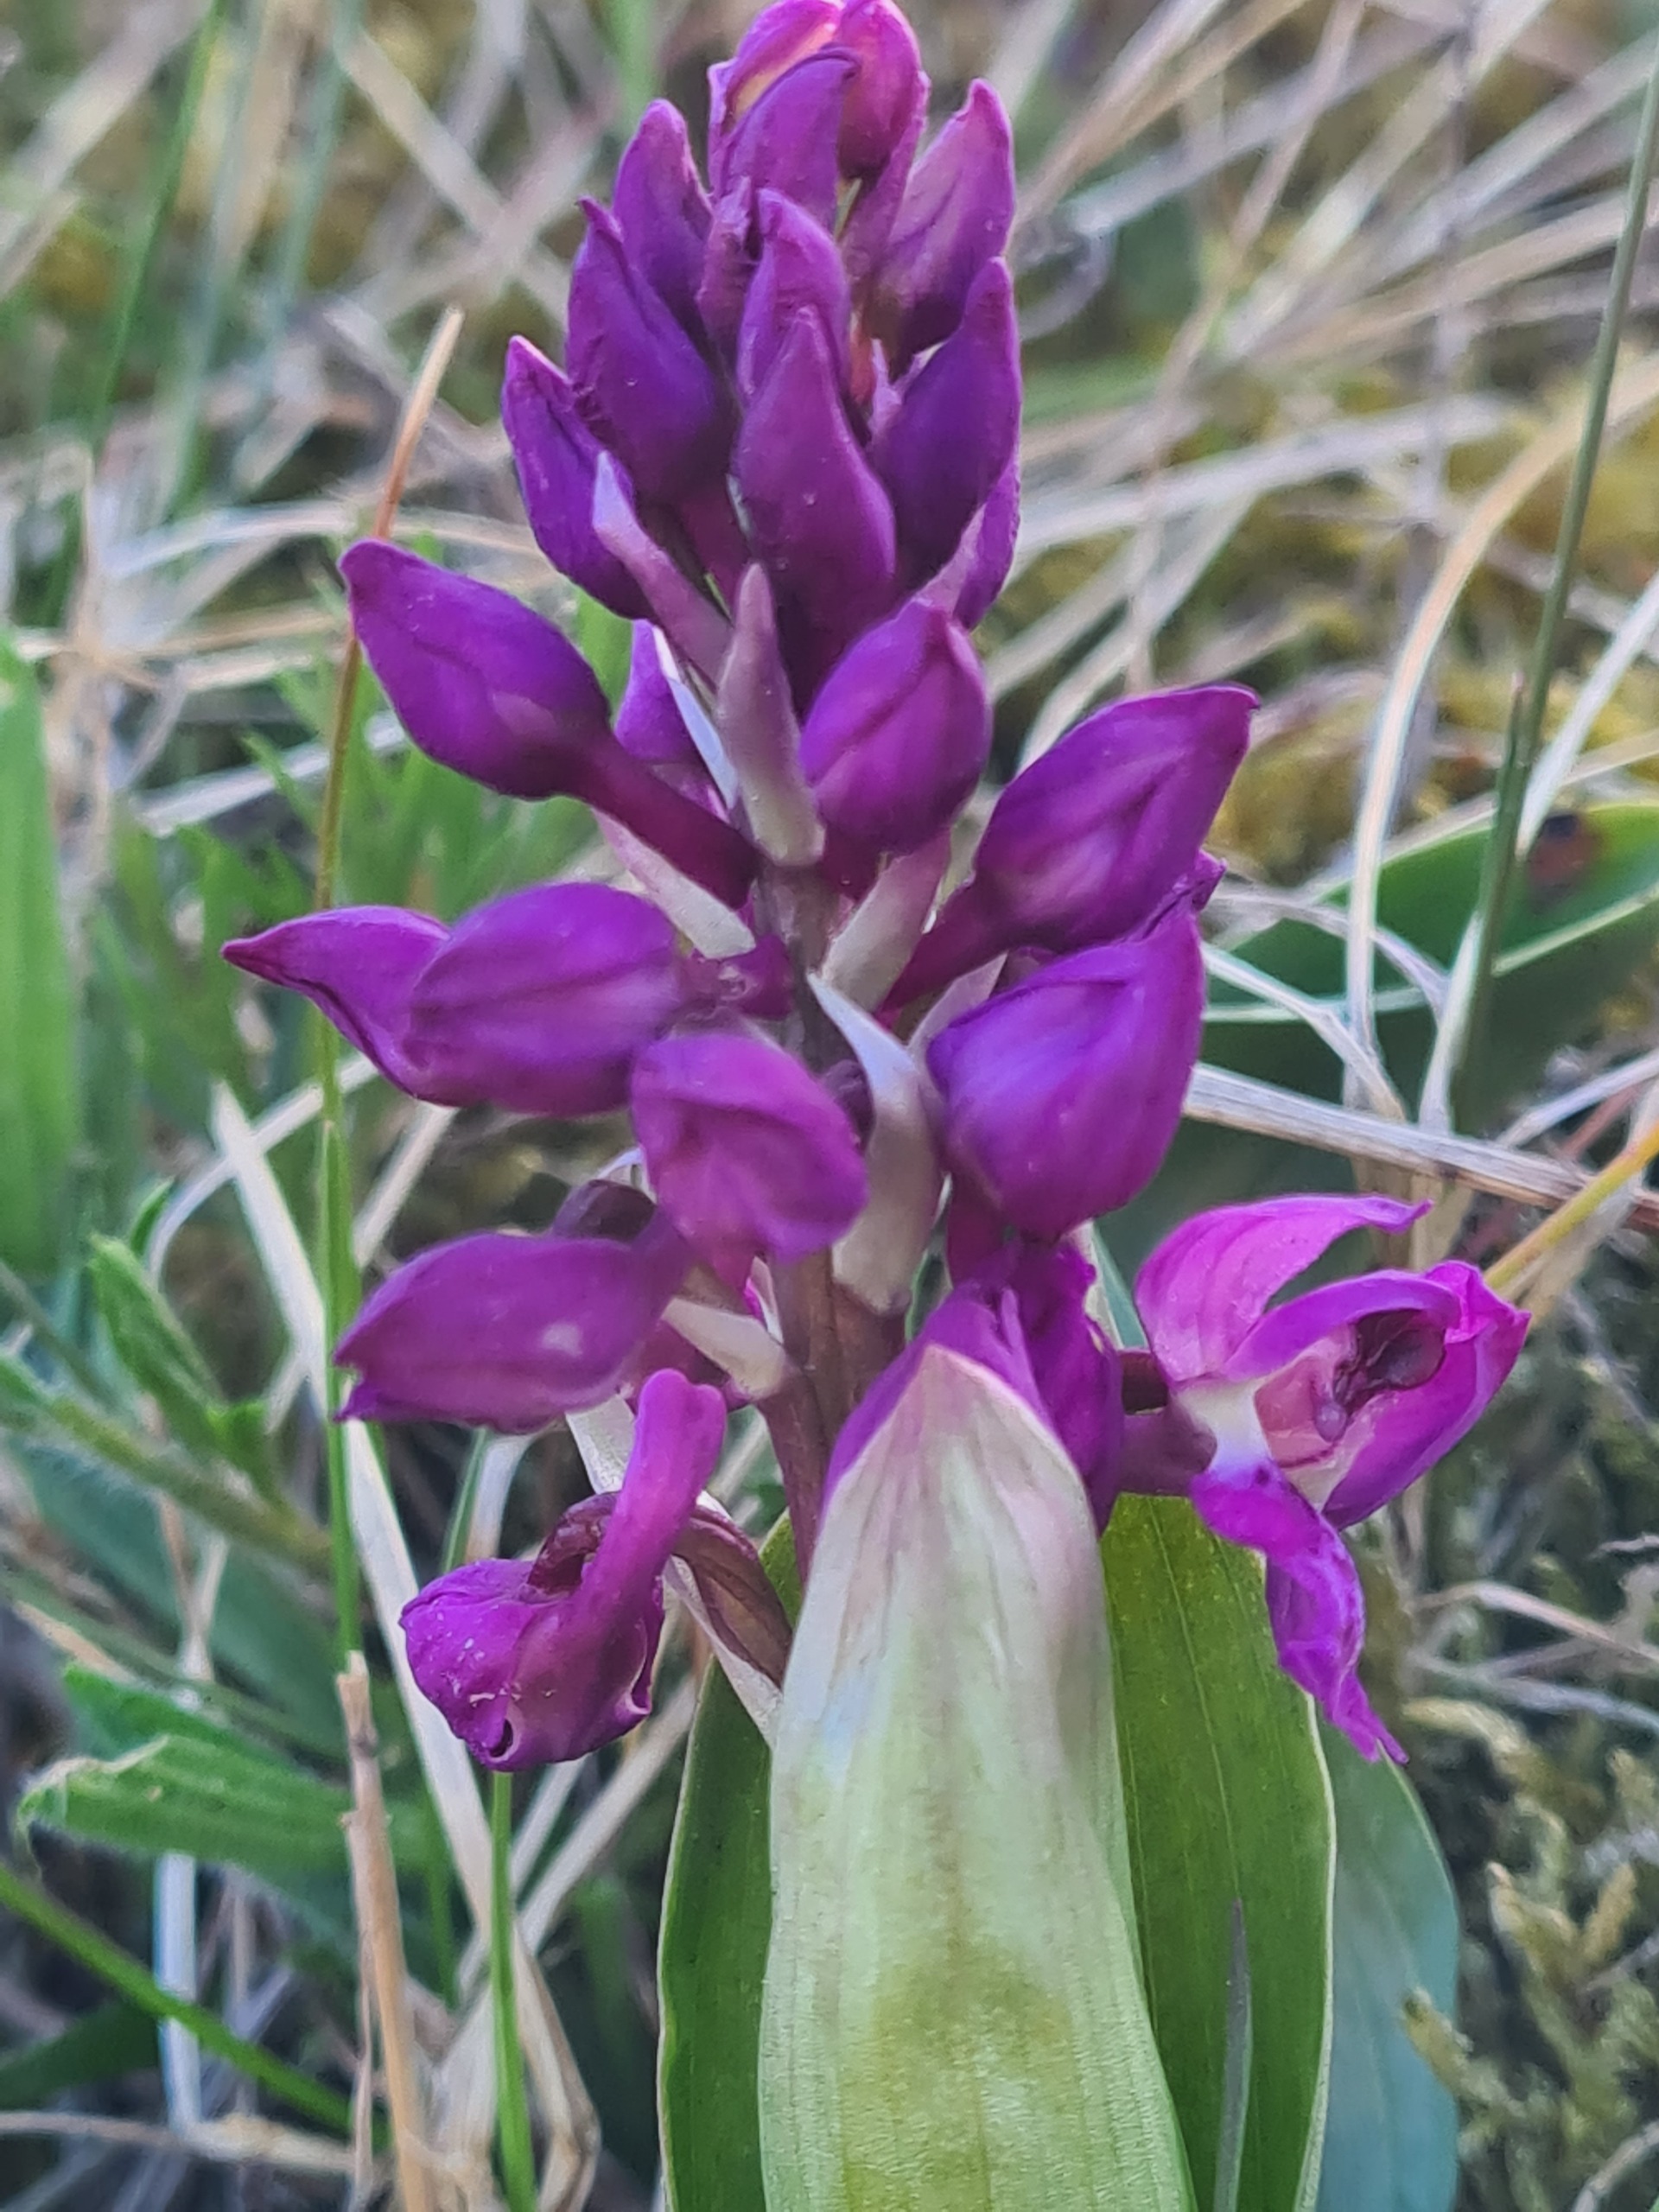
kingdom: Plantae
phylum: Tracheophyta
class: Liliopsida
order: Asparagales
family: Orchidaceae
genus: Orchis
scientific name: Orchis mascula
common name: Tyndakset gøgeurt
